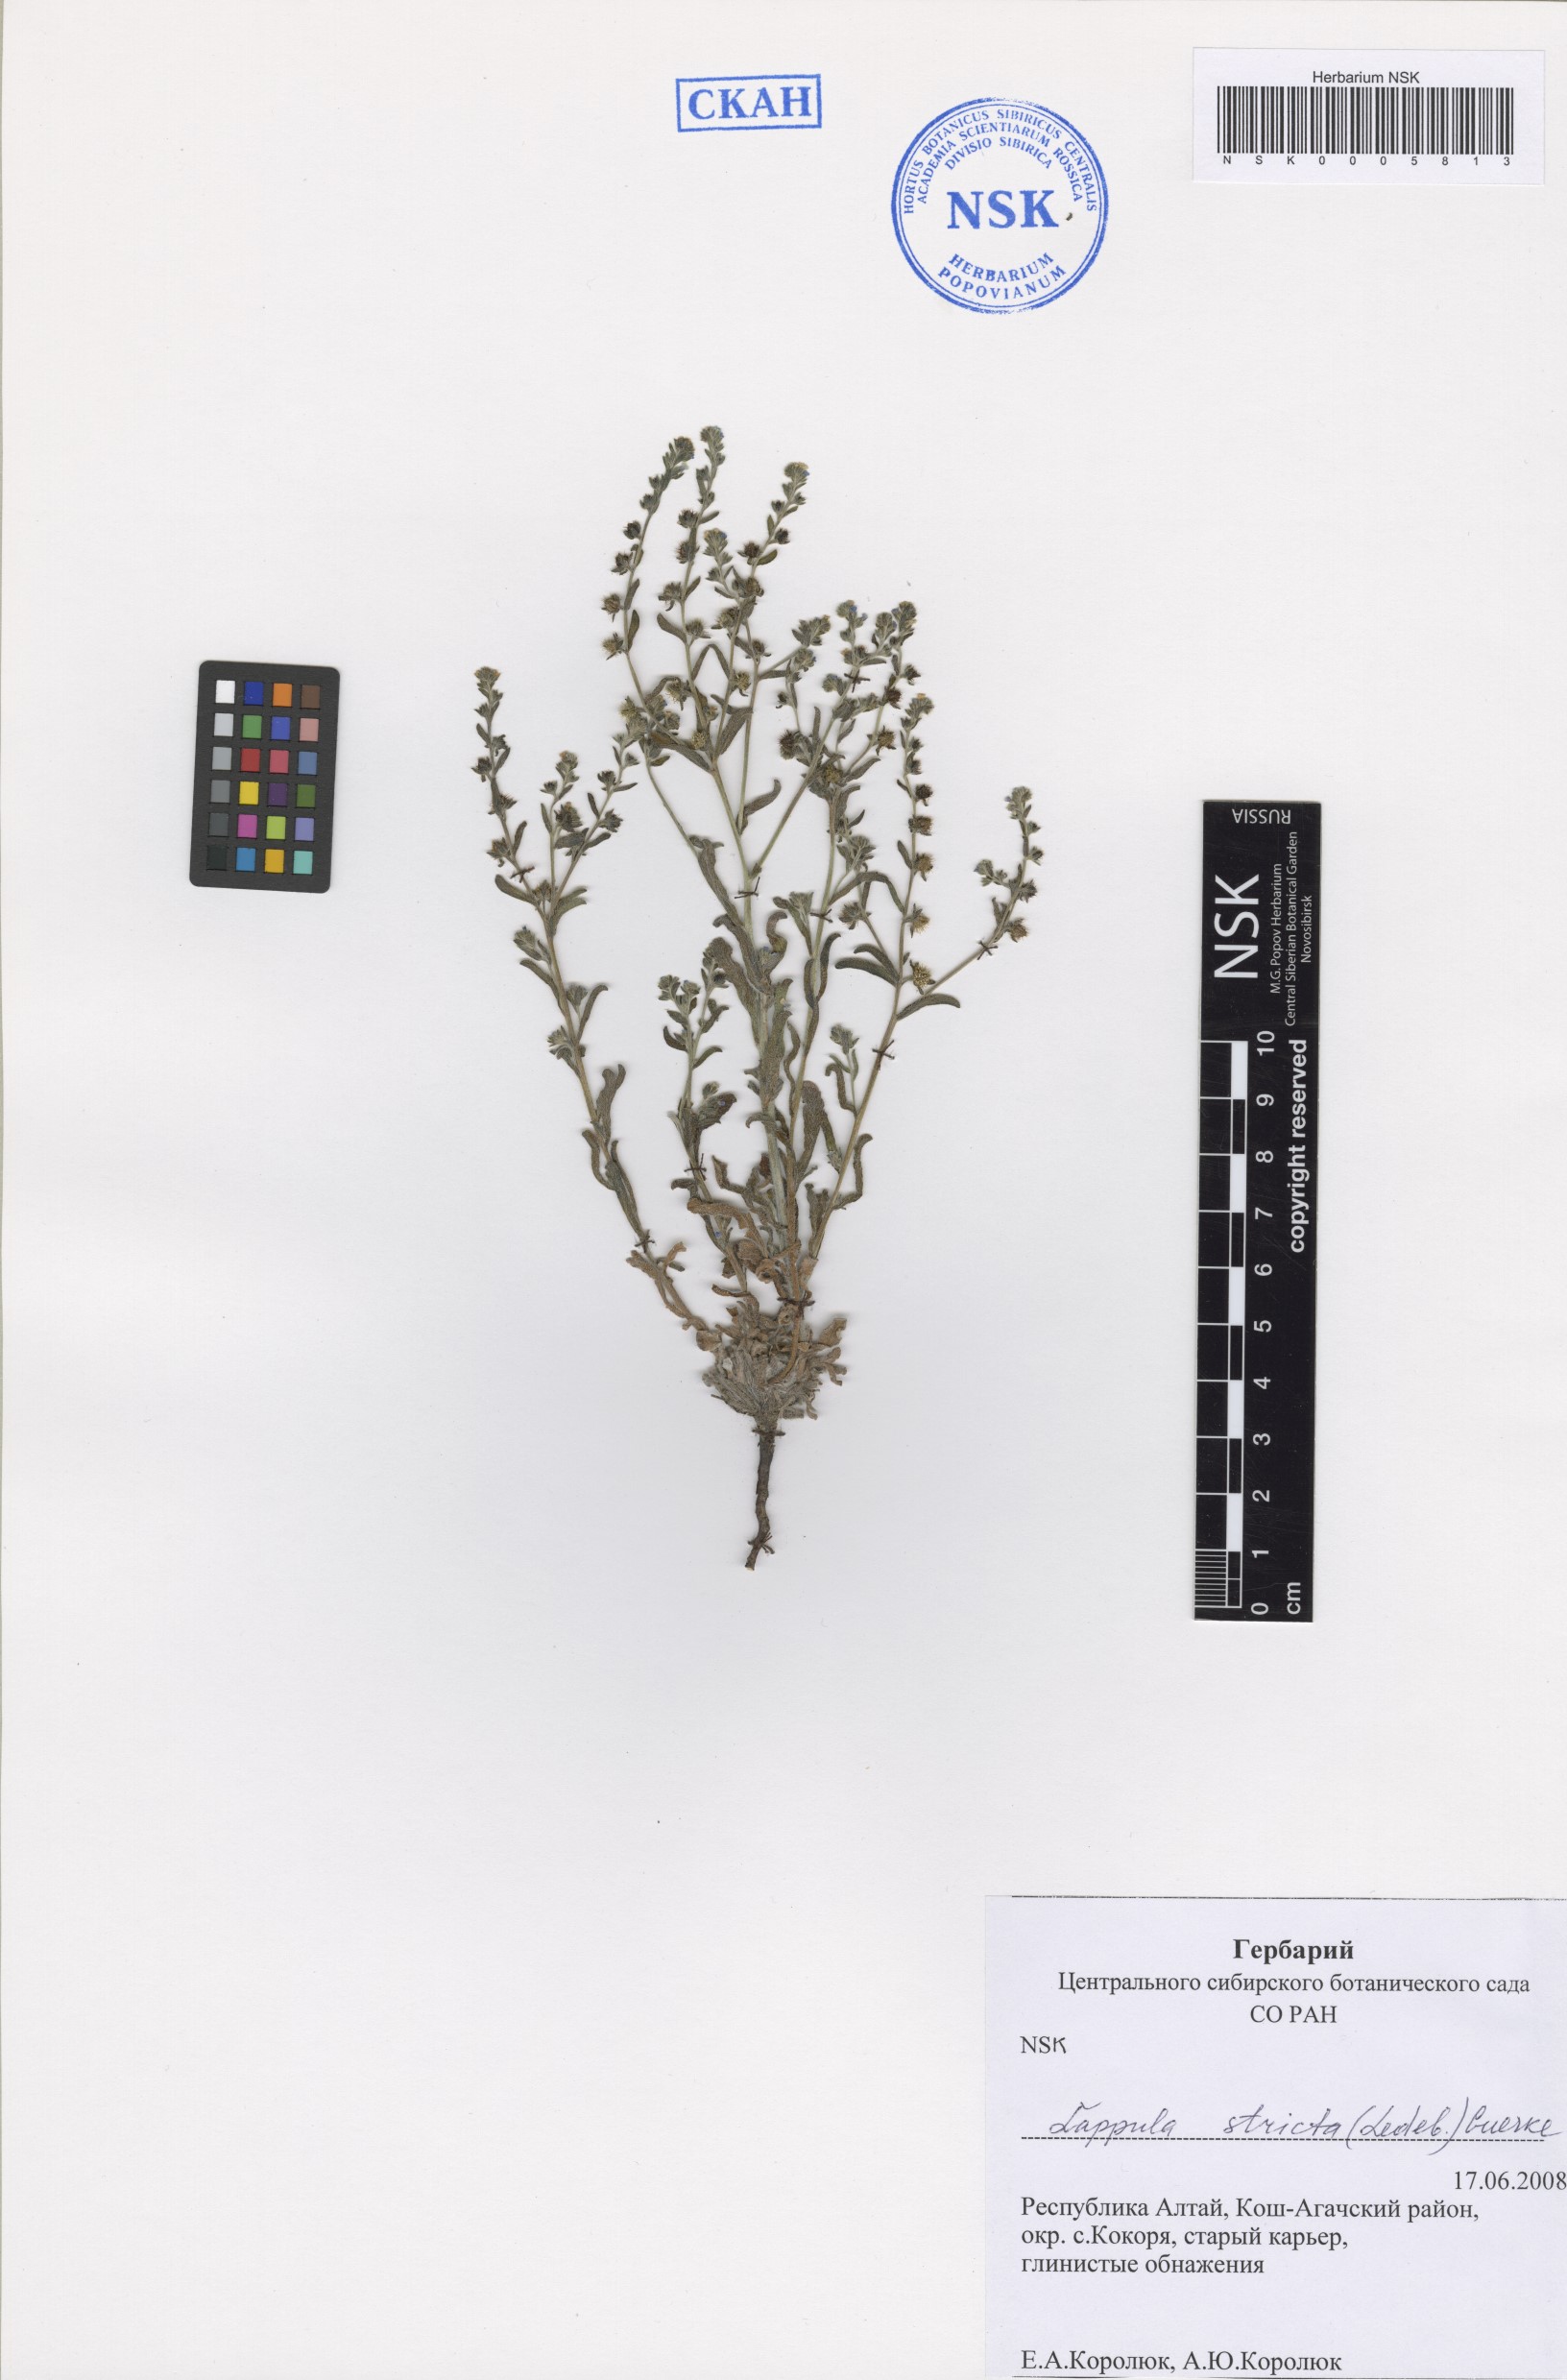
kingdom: Plantae
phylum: Tracheophyta
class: Magnoliopsida
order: Boraginales
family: Boraginaceae
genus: Lappula
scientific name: Lappula stricta
